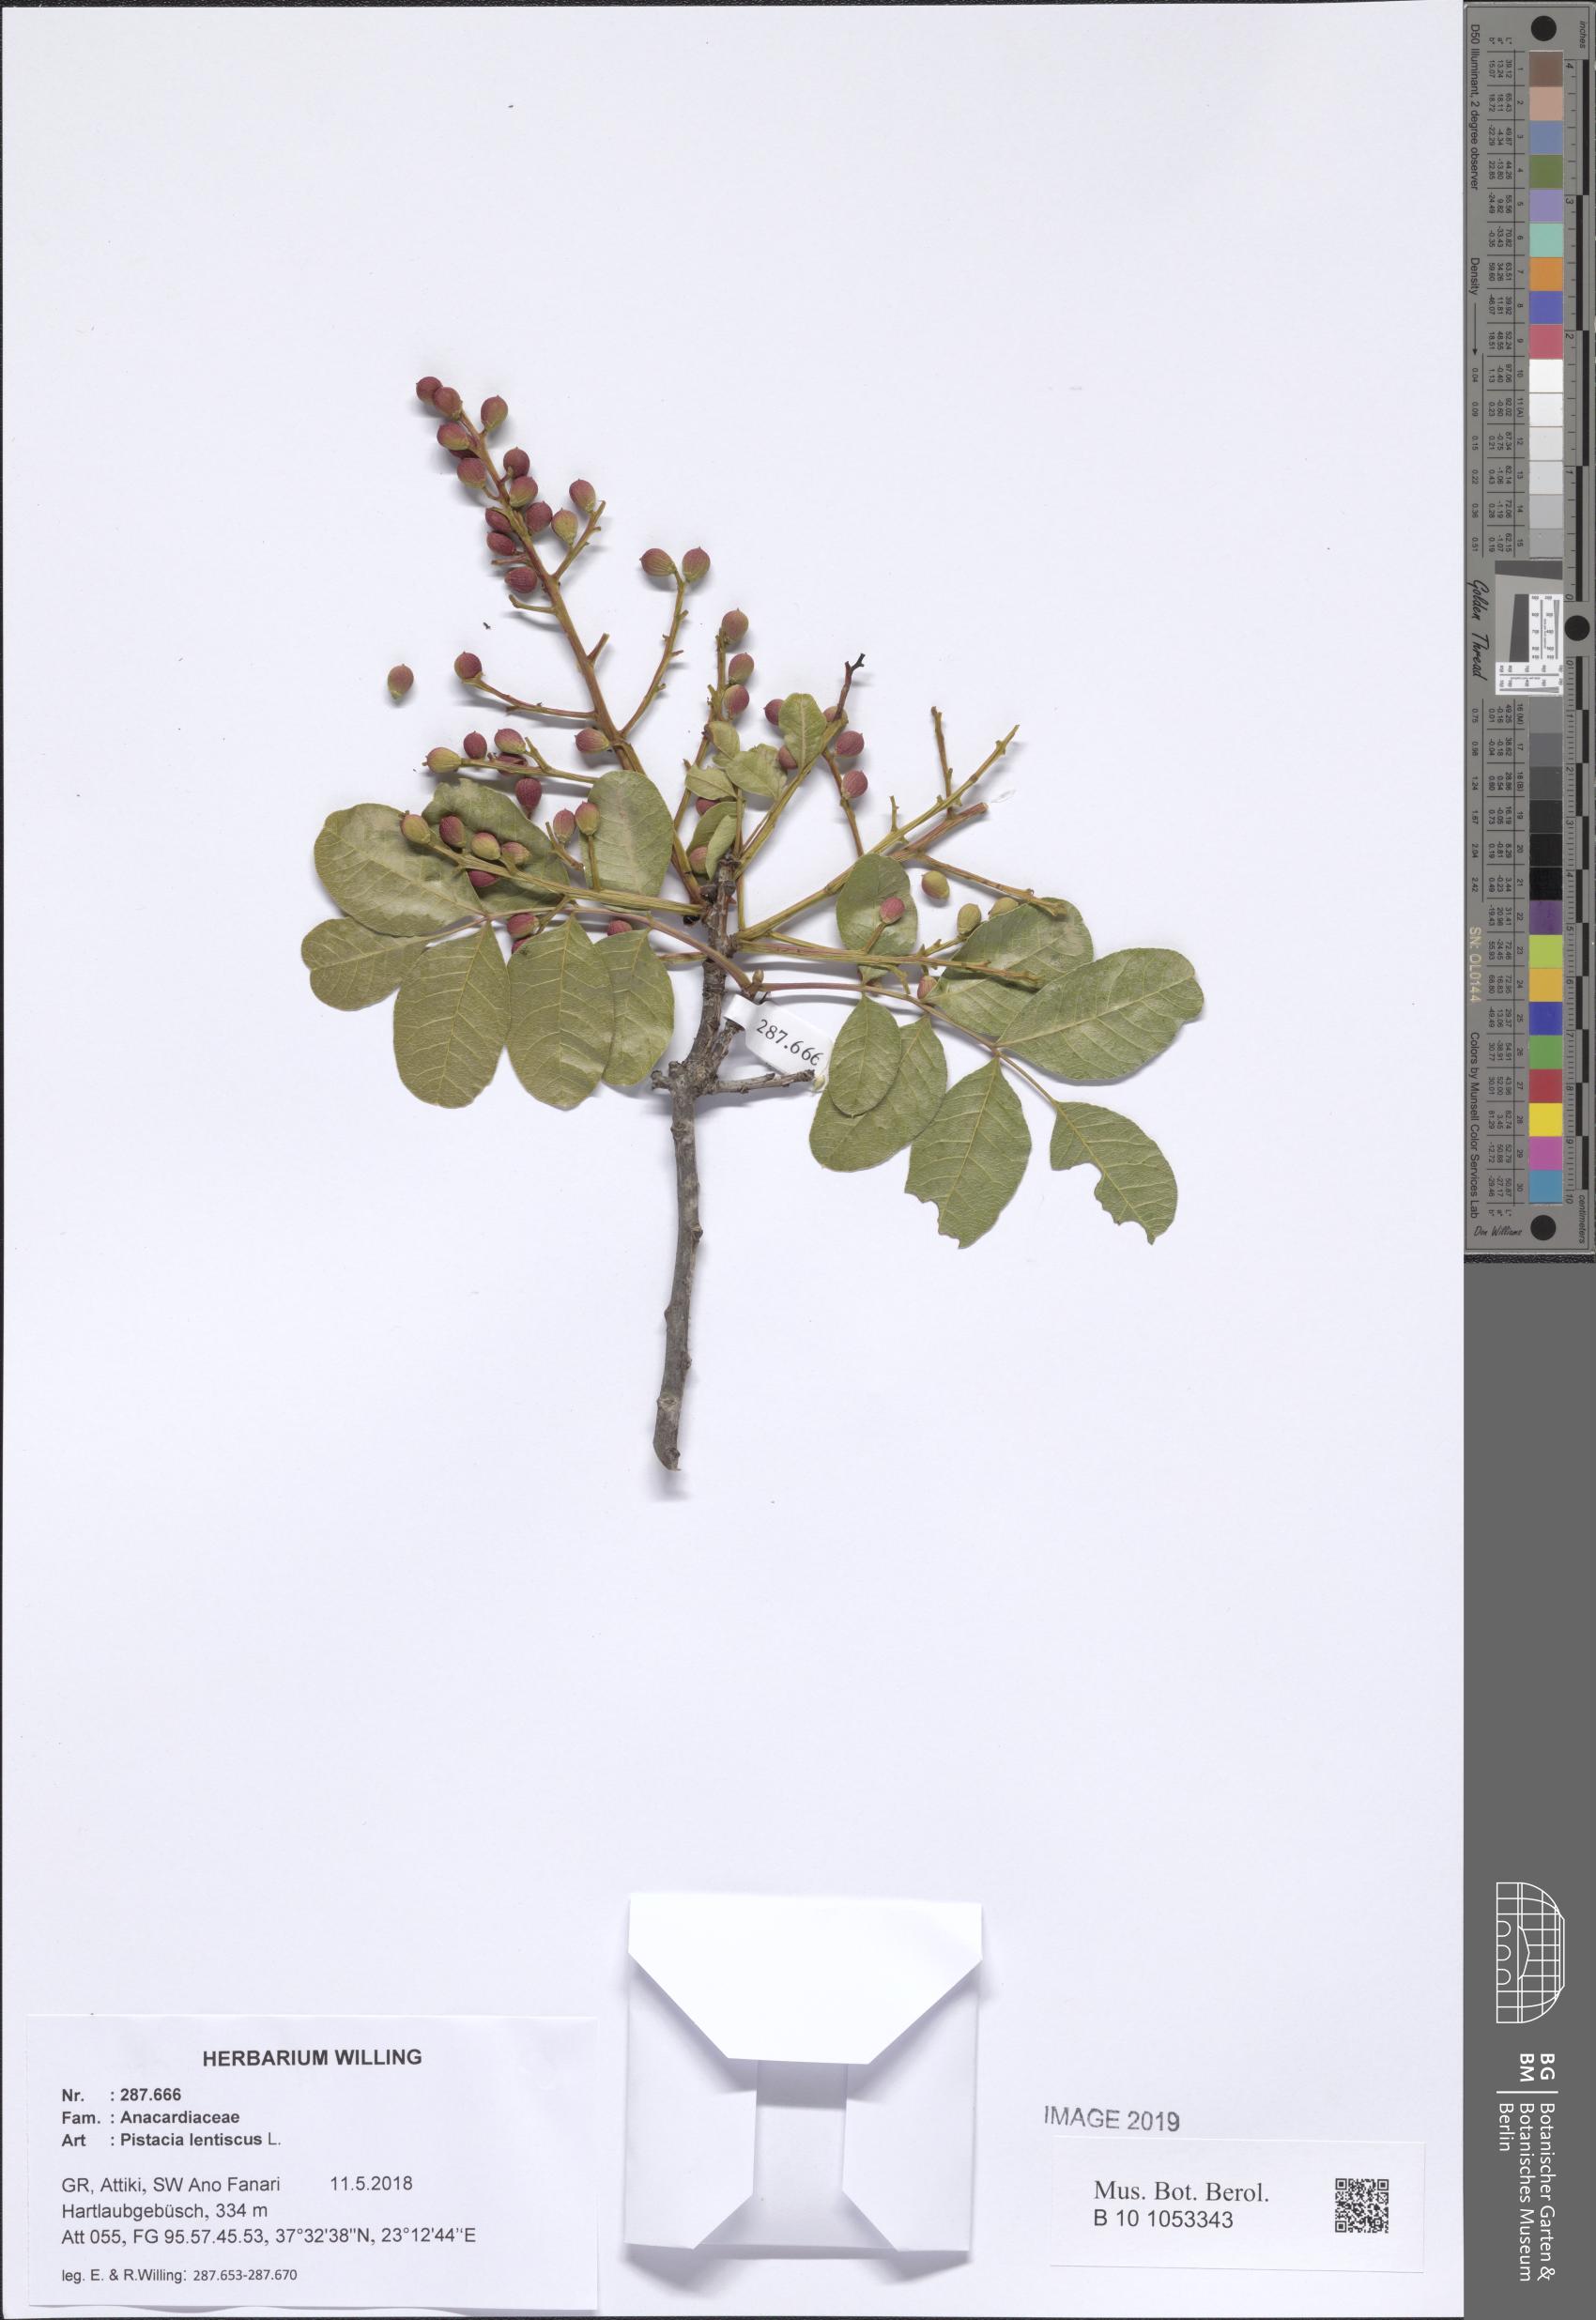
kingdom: Plantae
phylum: Tracheophyta
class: Magnoliopsida
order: Sapindales
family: Anacardiaceae
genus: Pistacia
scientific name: Pistacia lentiscus
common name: Lentisk
